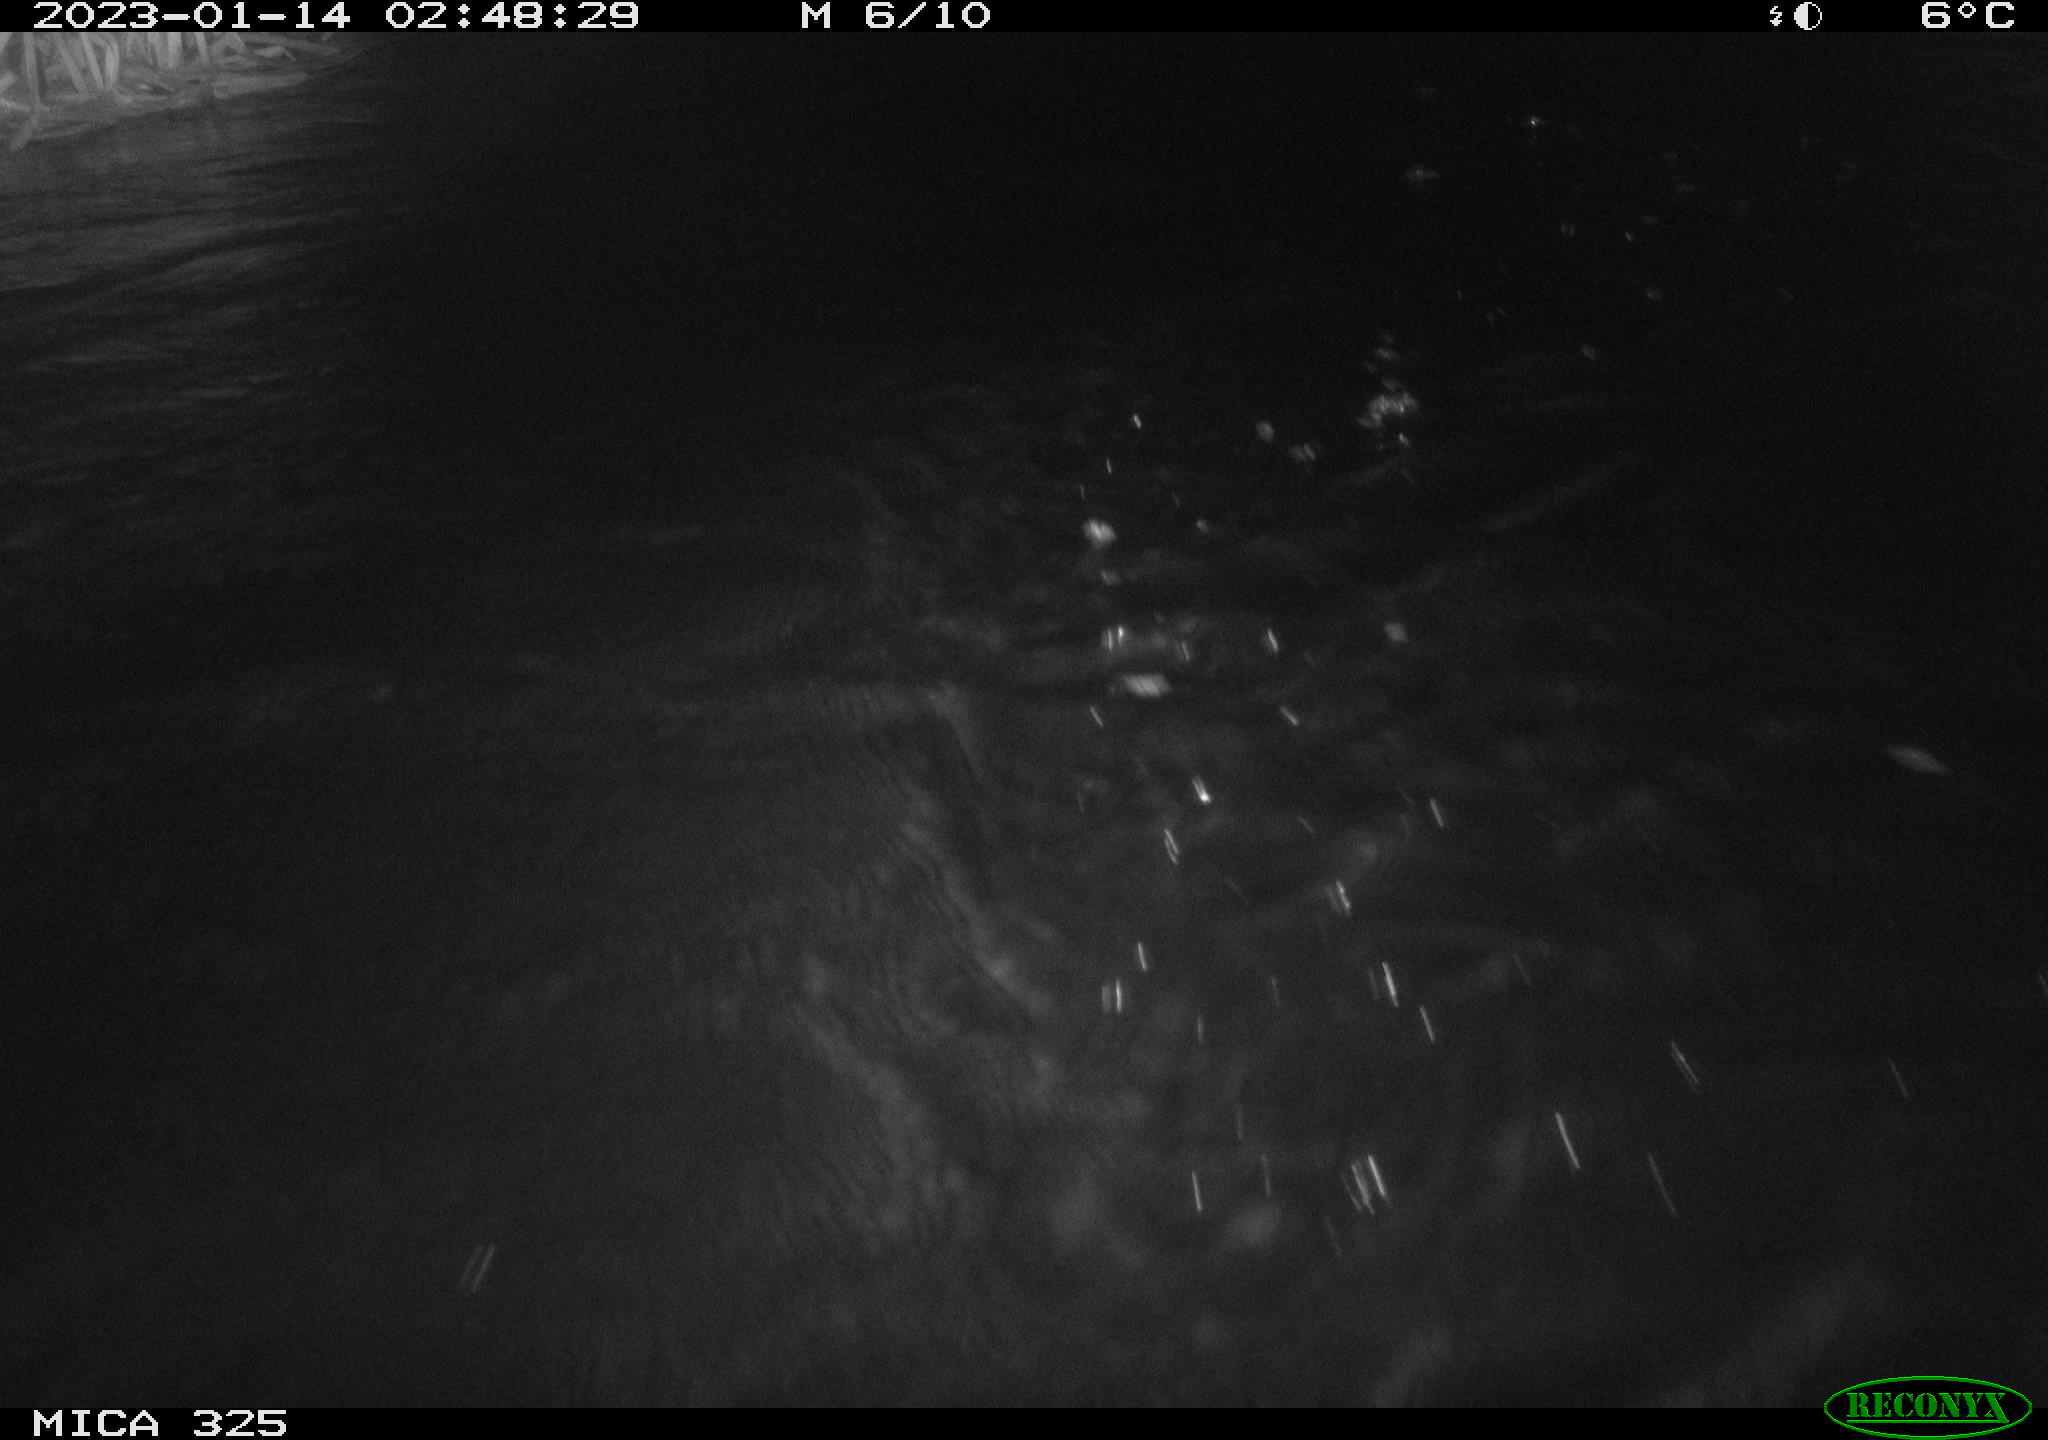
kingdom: Animalia
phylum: Chordata
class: Mammalia
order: Rodentia
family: Myocastoridae
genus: Myocastor
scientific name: Myocastor coypus
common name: Coypu
